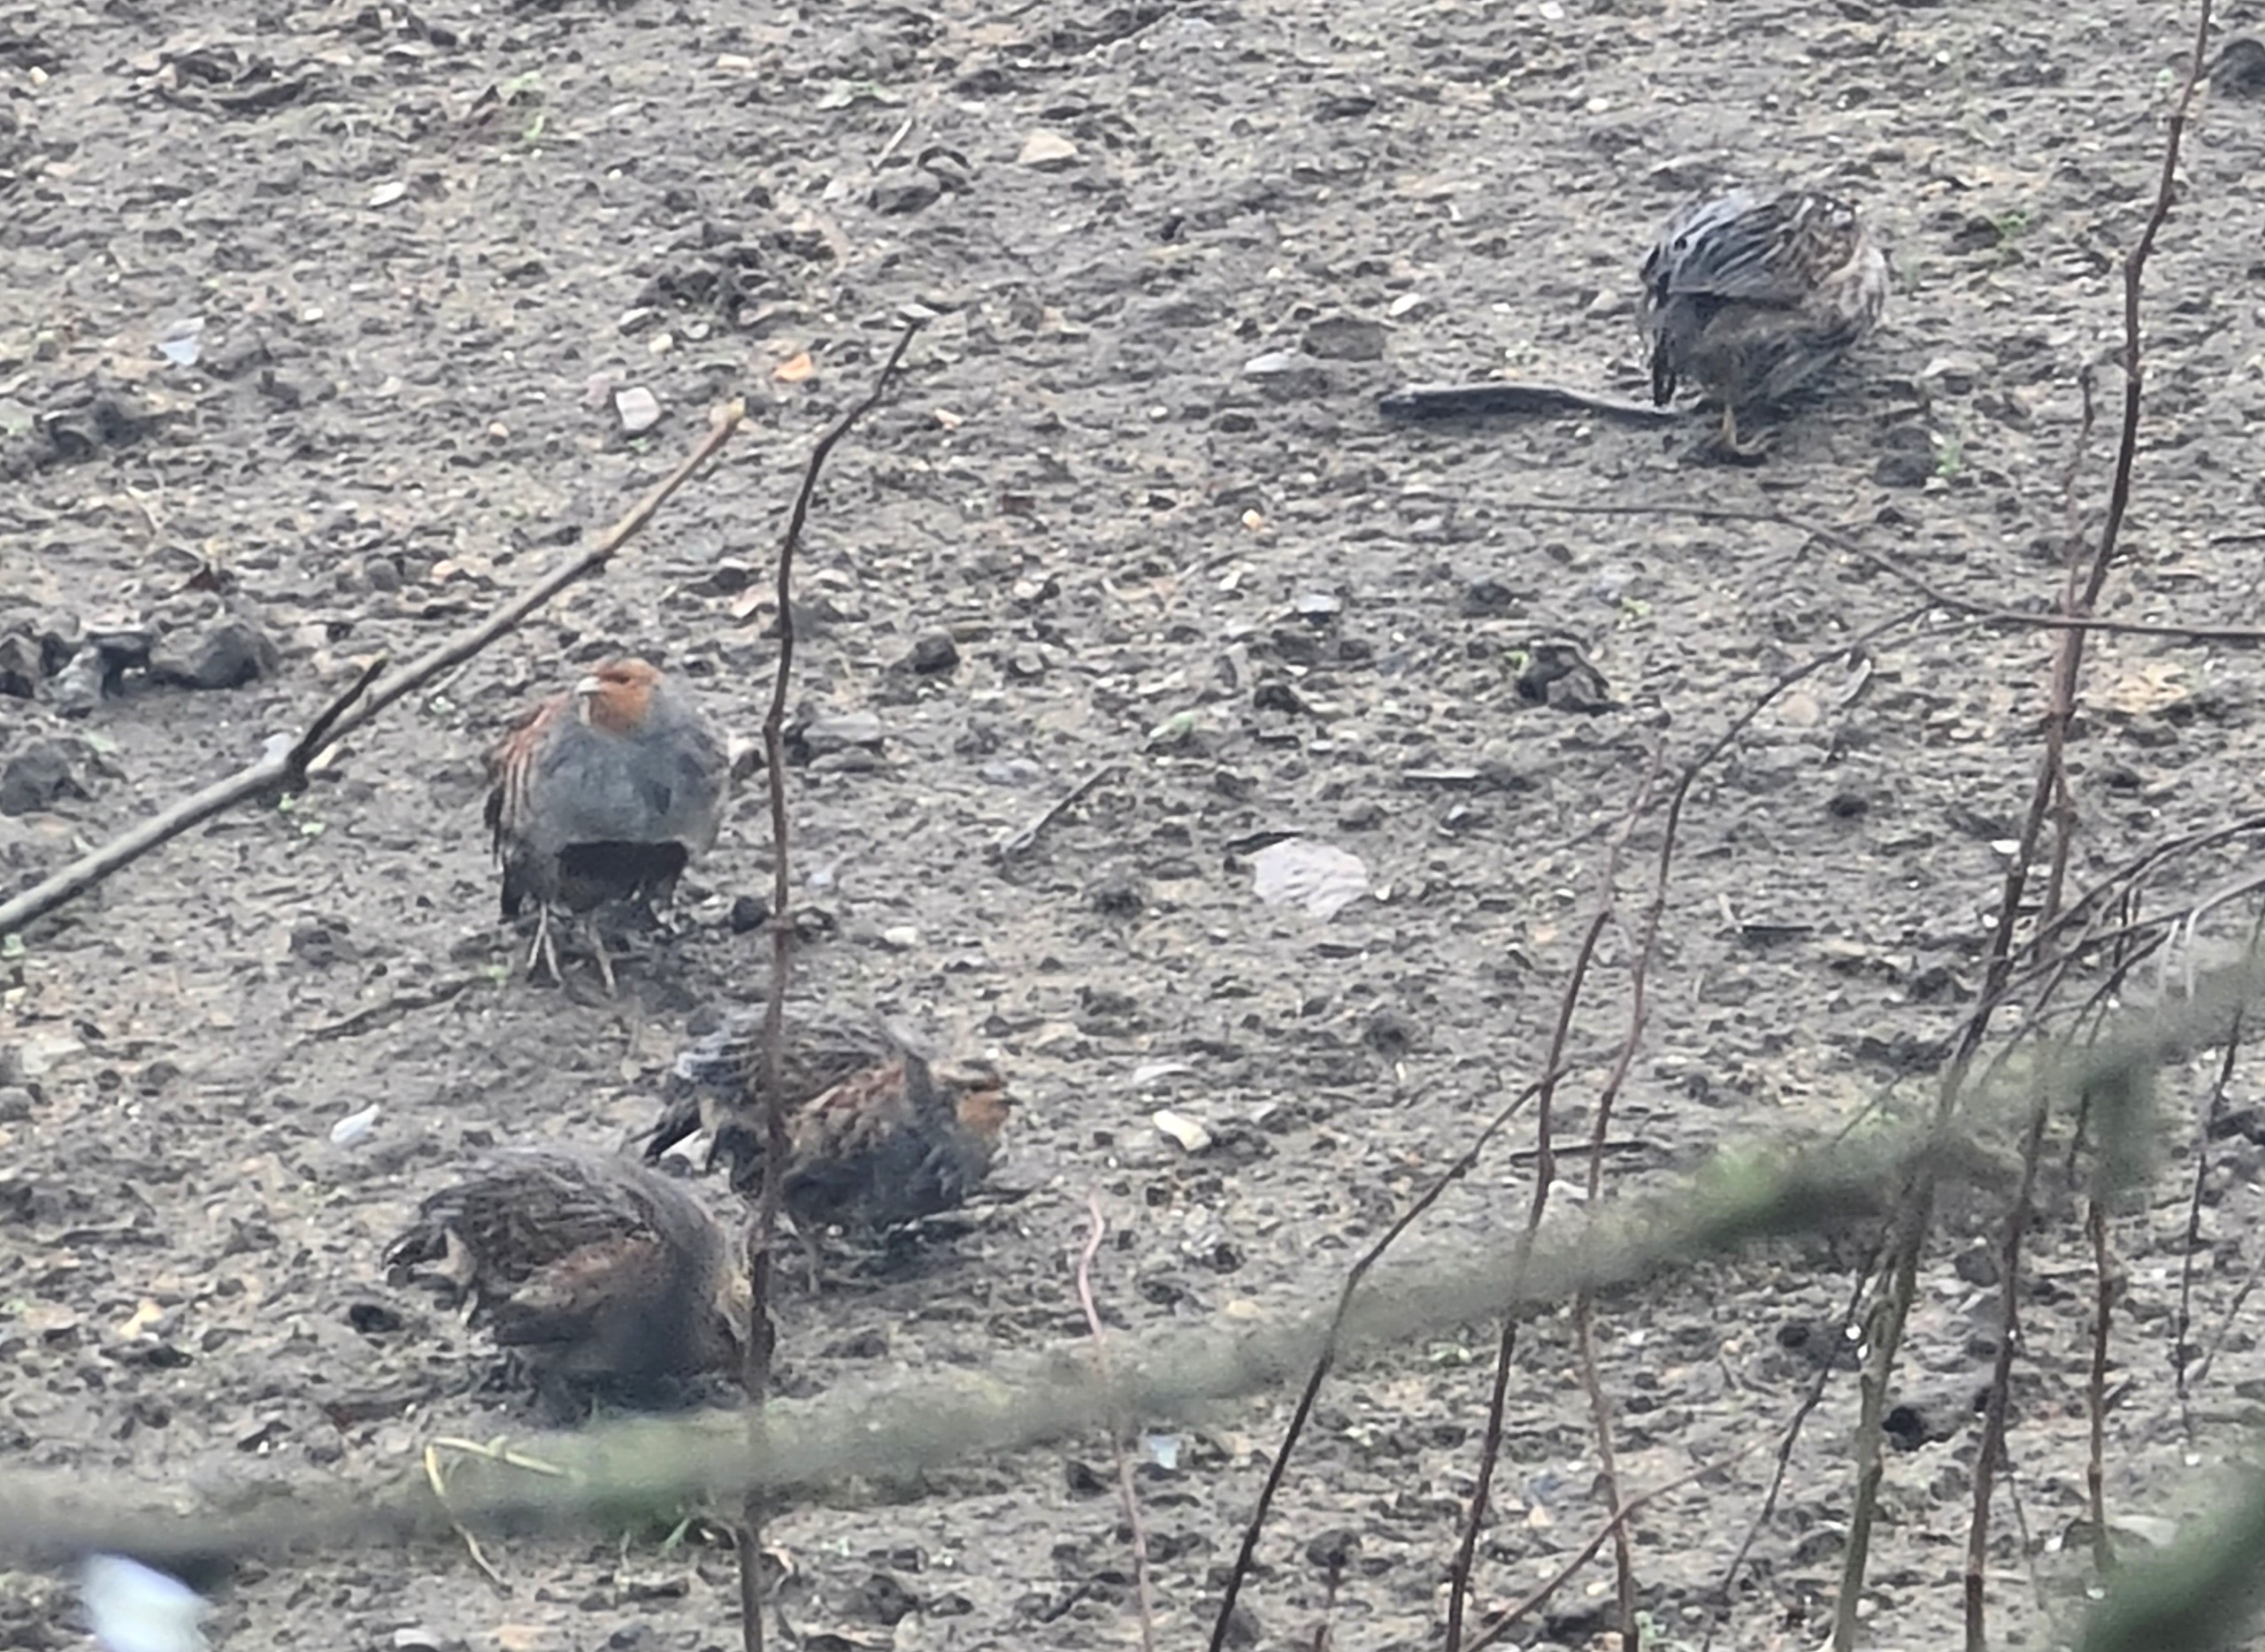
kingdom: Animalia
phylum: Chordata
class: Aves
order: Galliformes
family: Phasianidae
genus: Perdix
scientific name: Perdix perdix
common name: Agerhøne
